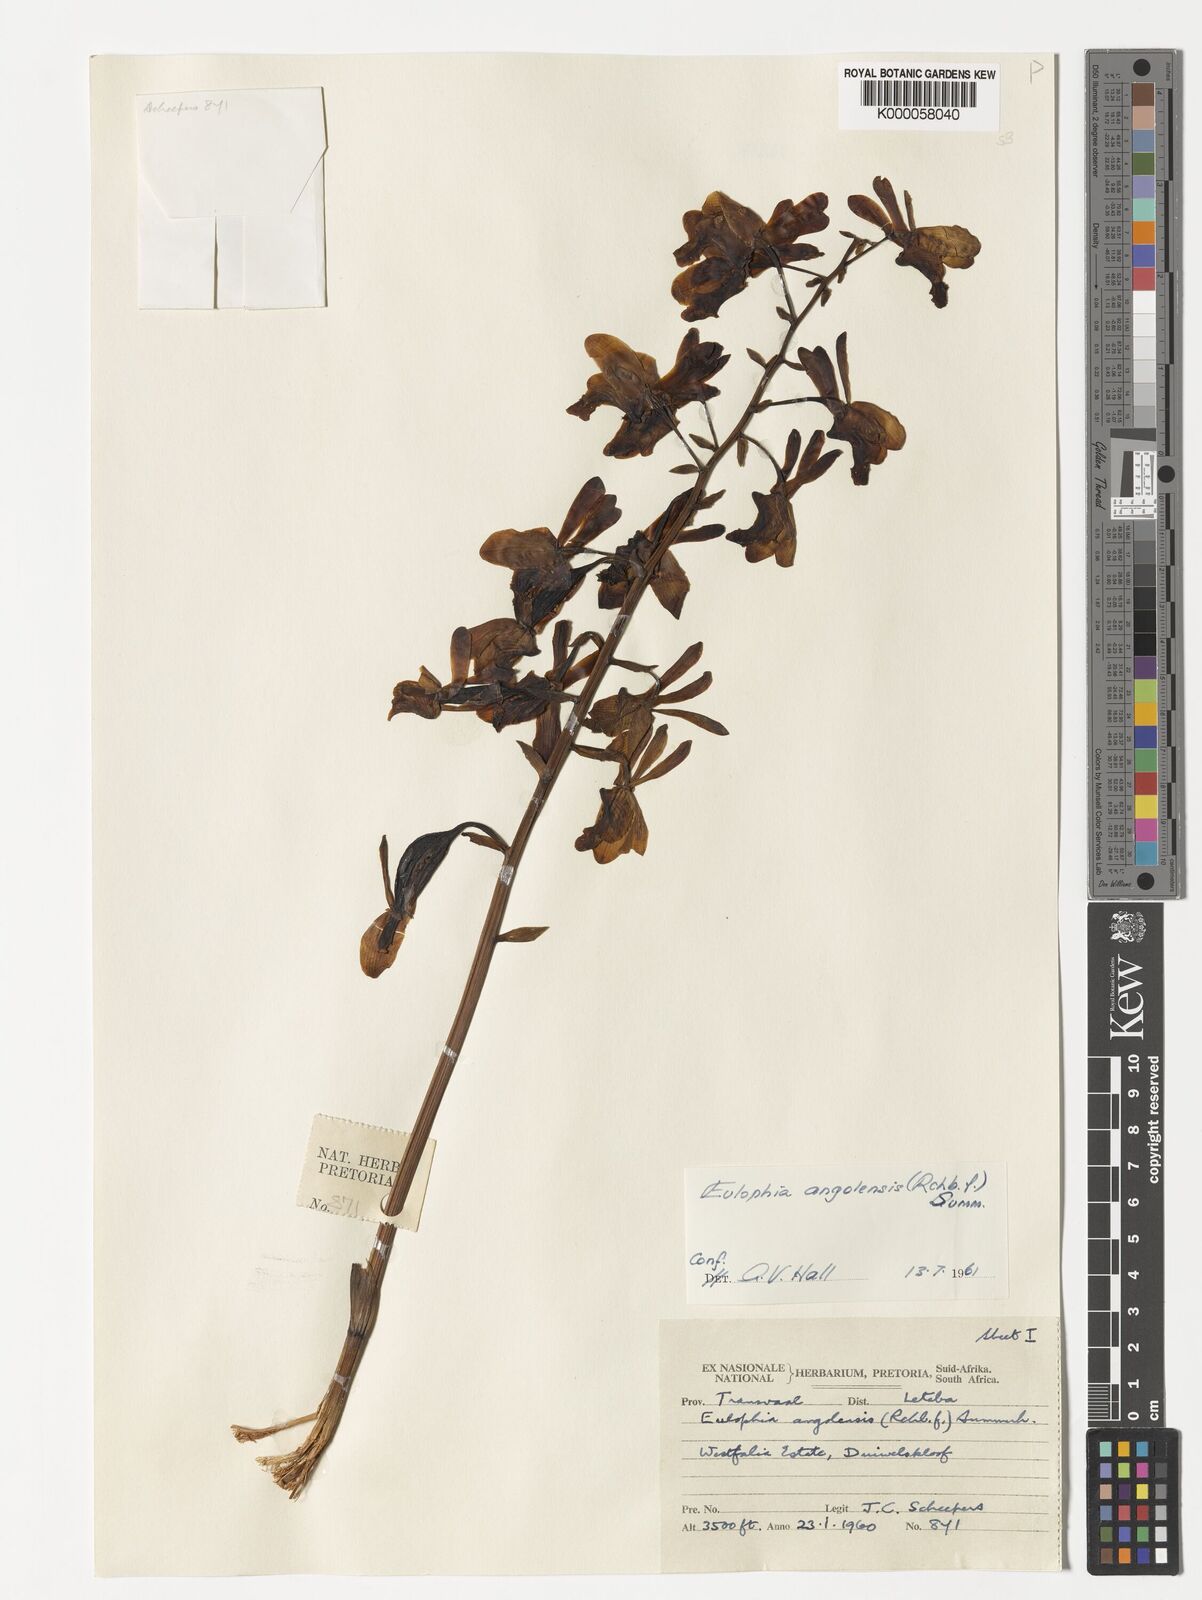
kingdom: Plantae
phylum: Tracheophyta
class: Liliopsida
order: Asparagales
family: Orchidaceae
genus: Eulophia
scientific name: Eulophia angolensis
